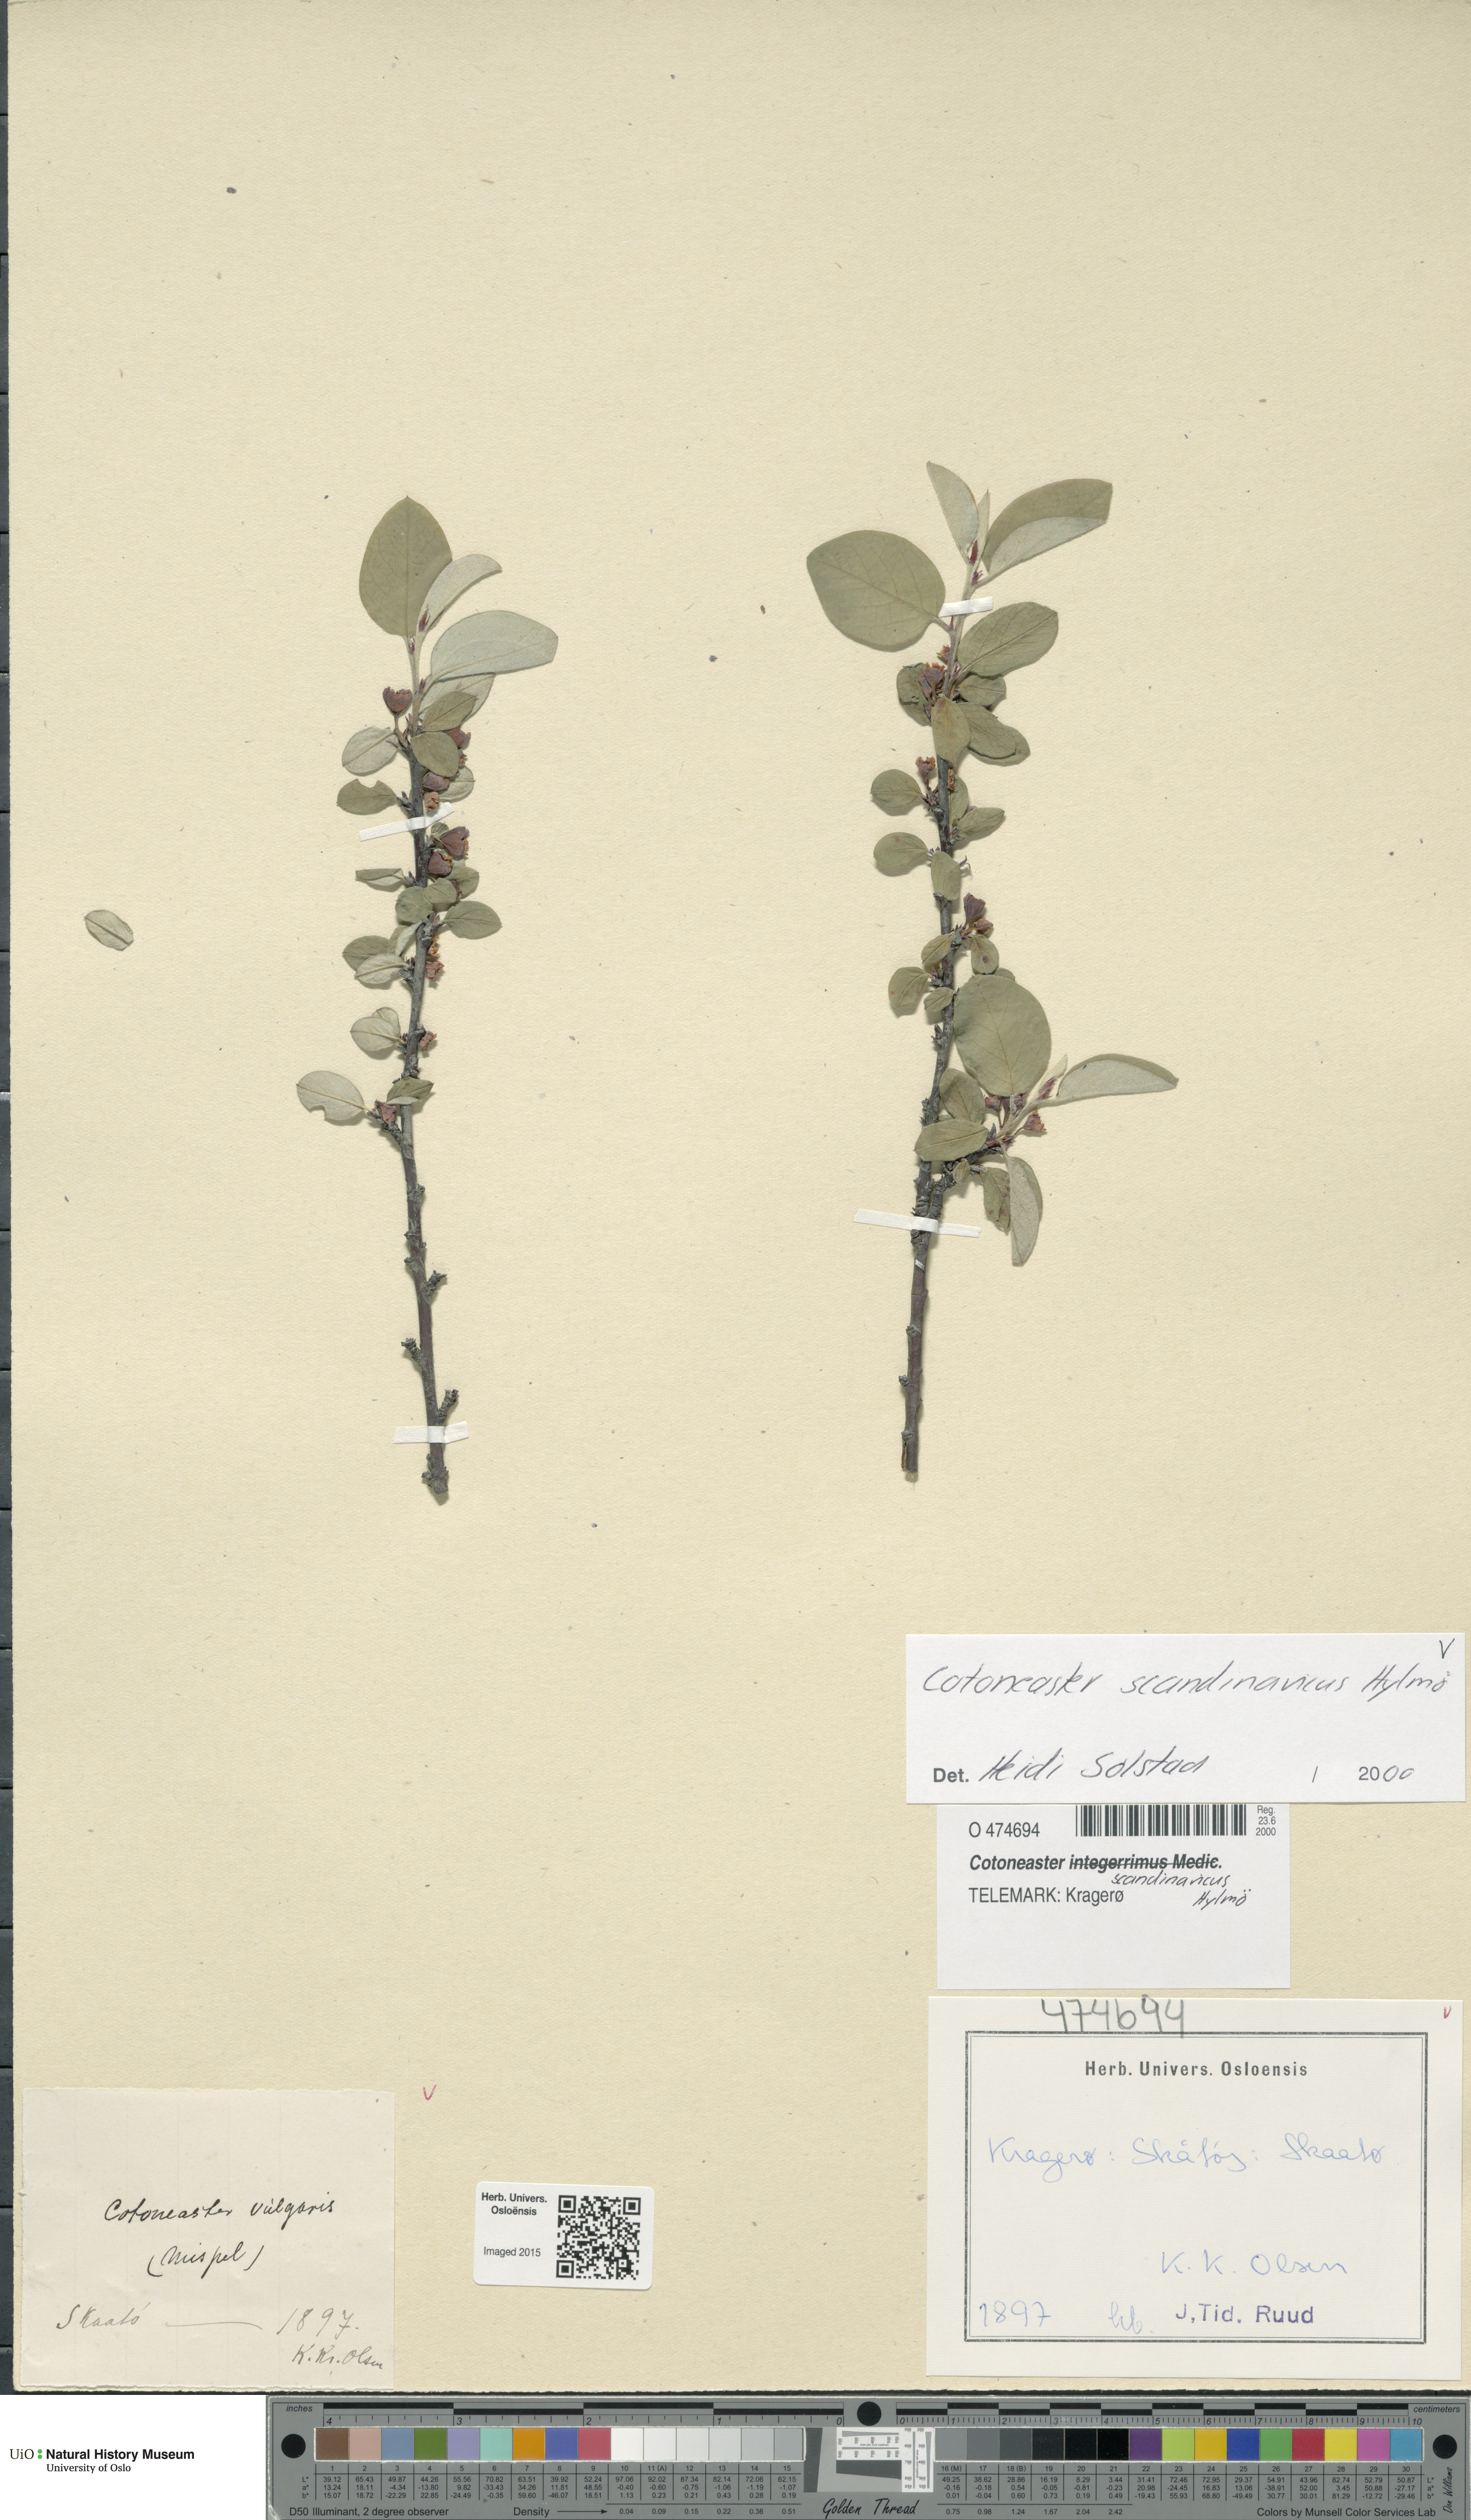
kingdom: Plantae
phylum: Tracheophyta
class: Magnoliopsida
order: Rosales
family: Rosaceae
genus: Cotoneaster
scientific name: Cotoneaster integerrimus
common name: Wild cotoneaster
